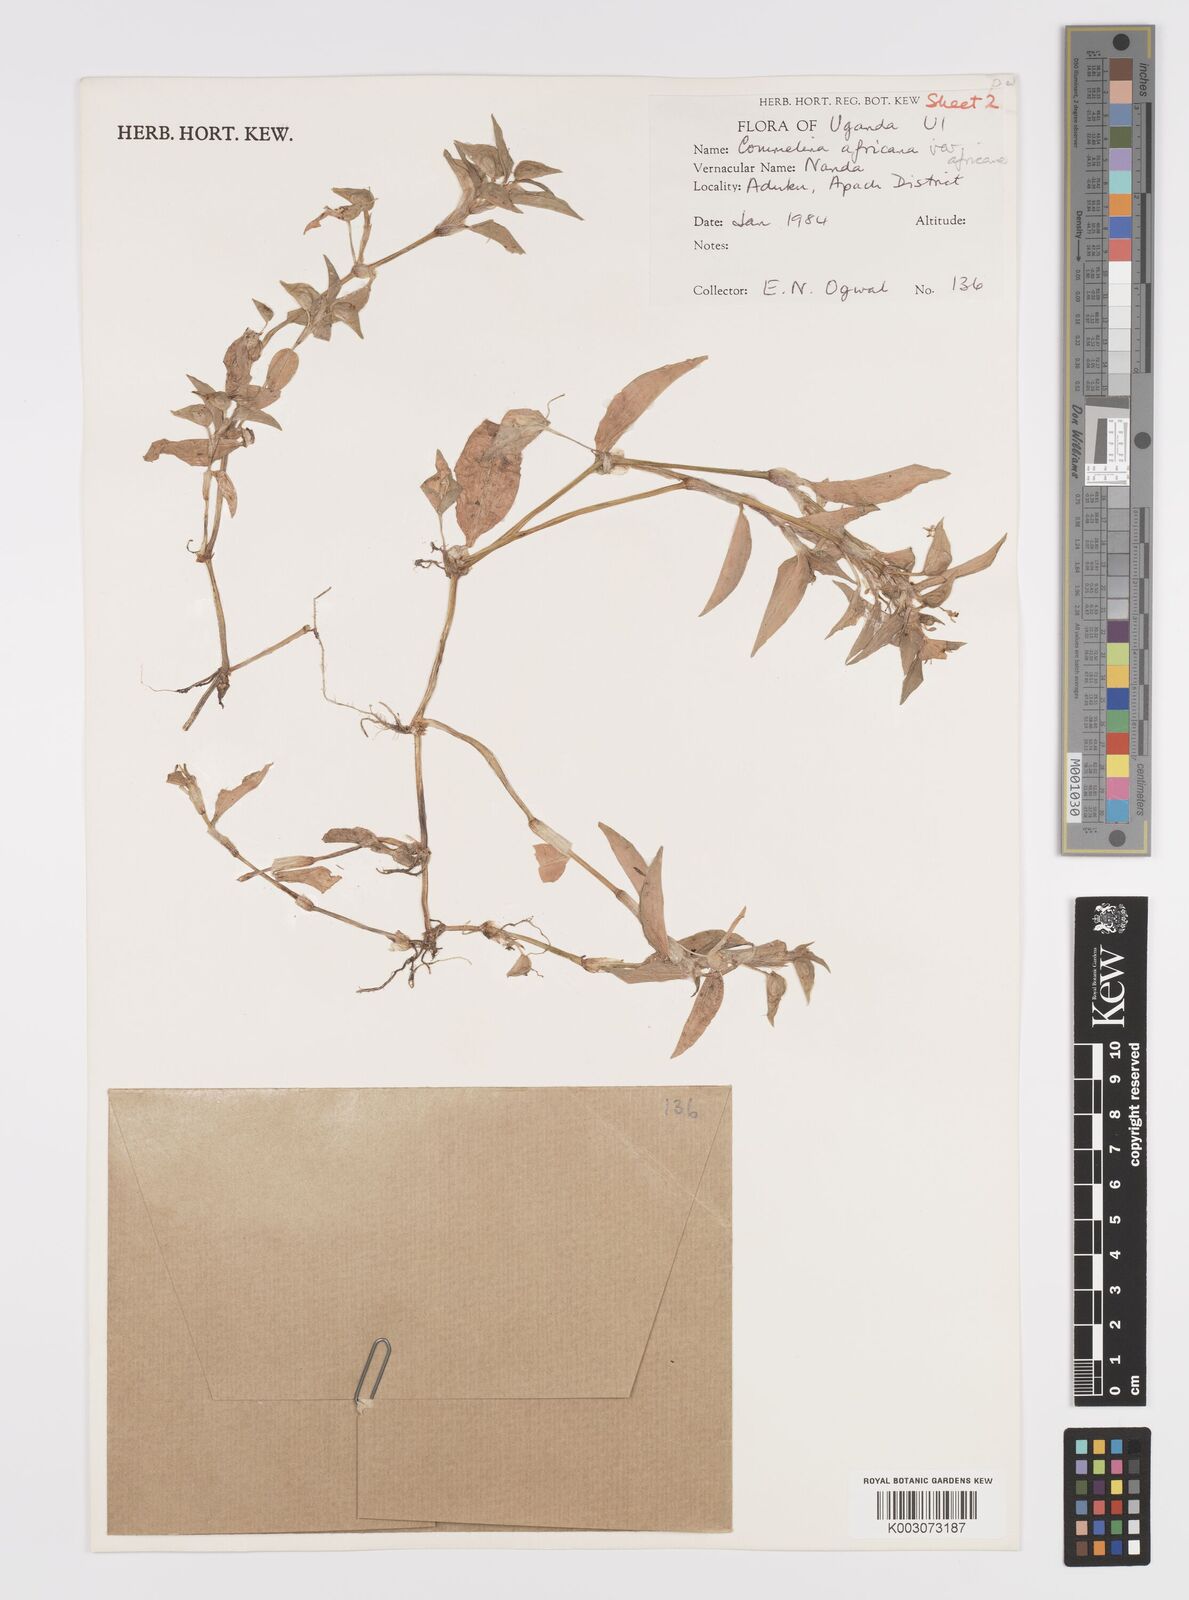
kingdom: Plantae
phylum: Tracheophyta
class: Liliopsida
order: Commelinales
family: Commelinaceae
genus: Commelina
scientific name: Commelina africana
